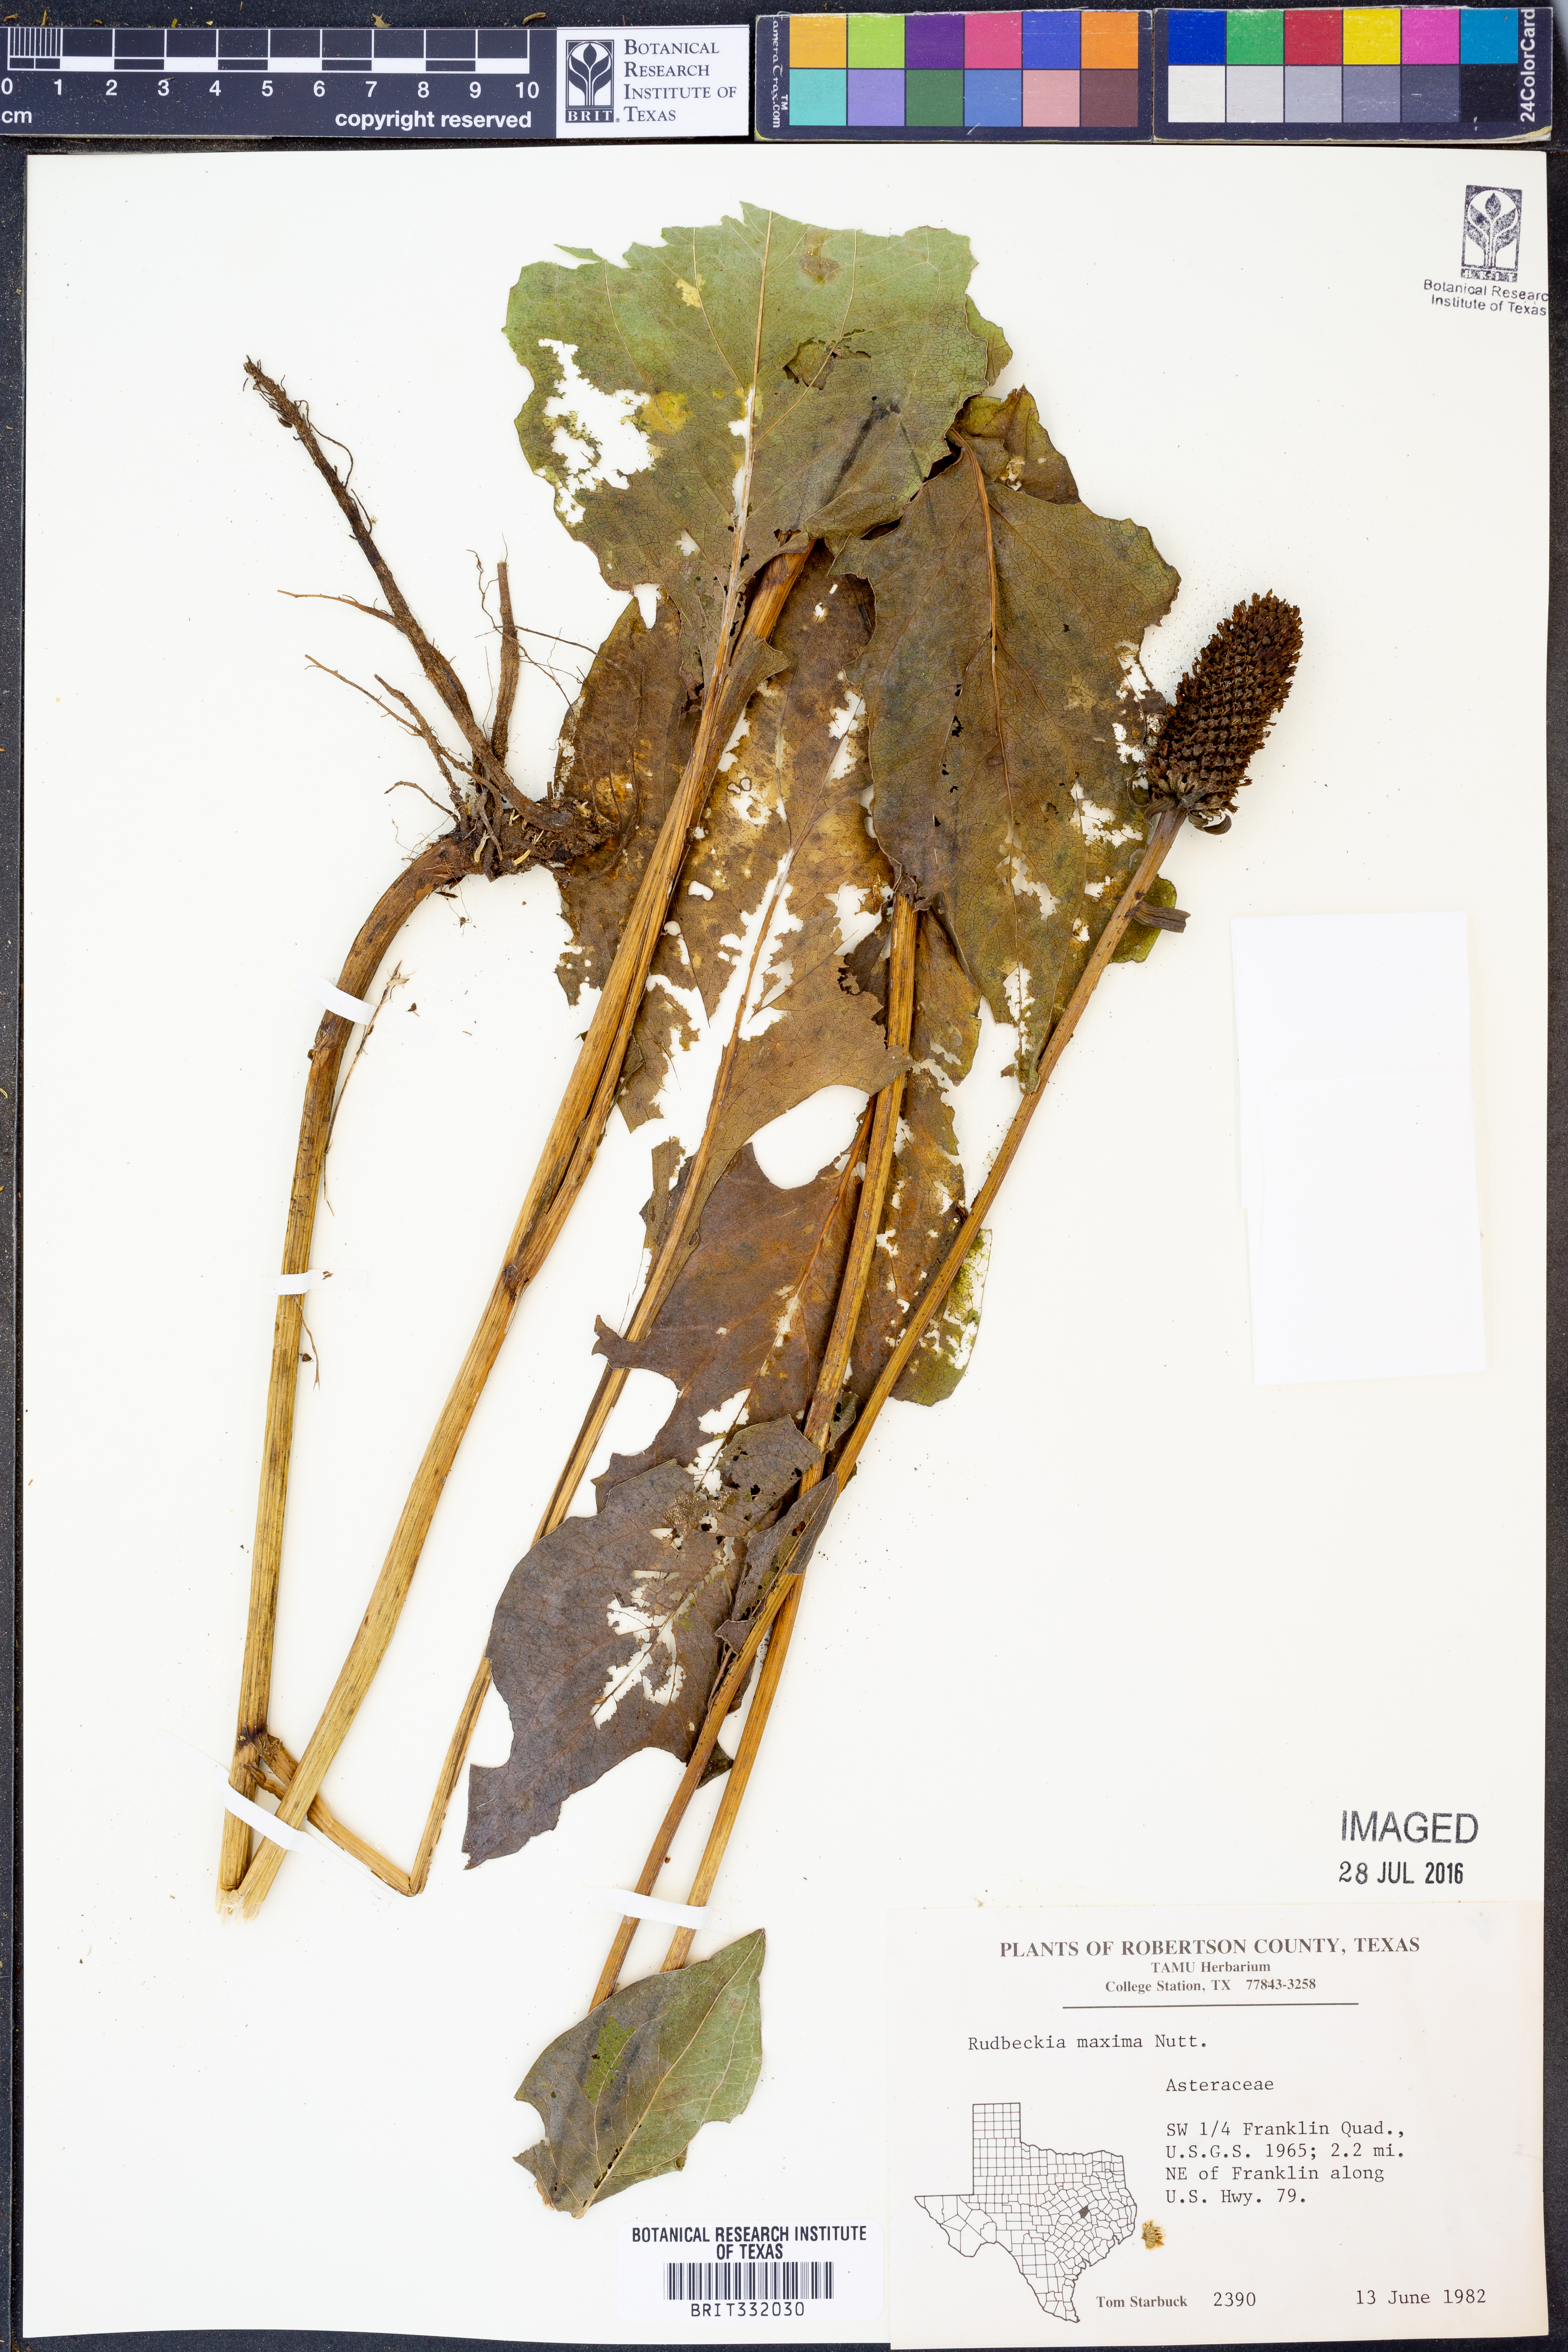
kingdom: Plantae
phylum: Tracheophyta
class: Magnoliopsida
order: Asterales
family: Asteraceae
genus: Rudbeckia
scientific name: Rudbeckia maxima
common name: Cabbage coneflower
